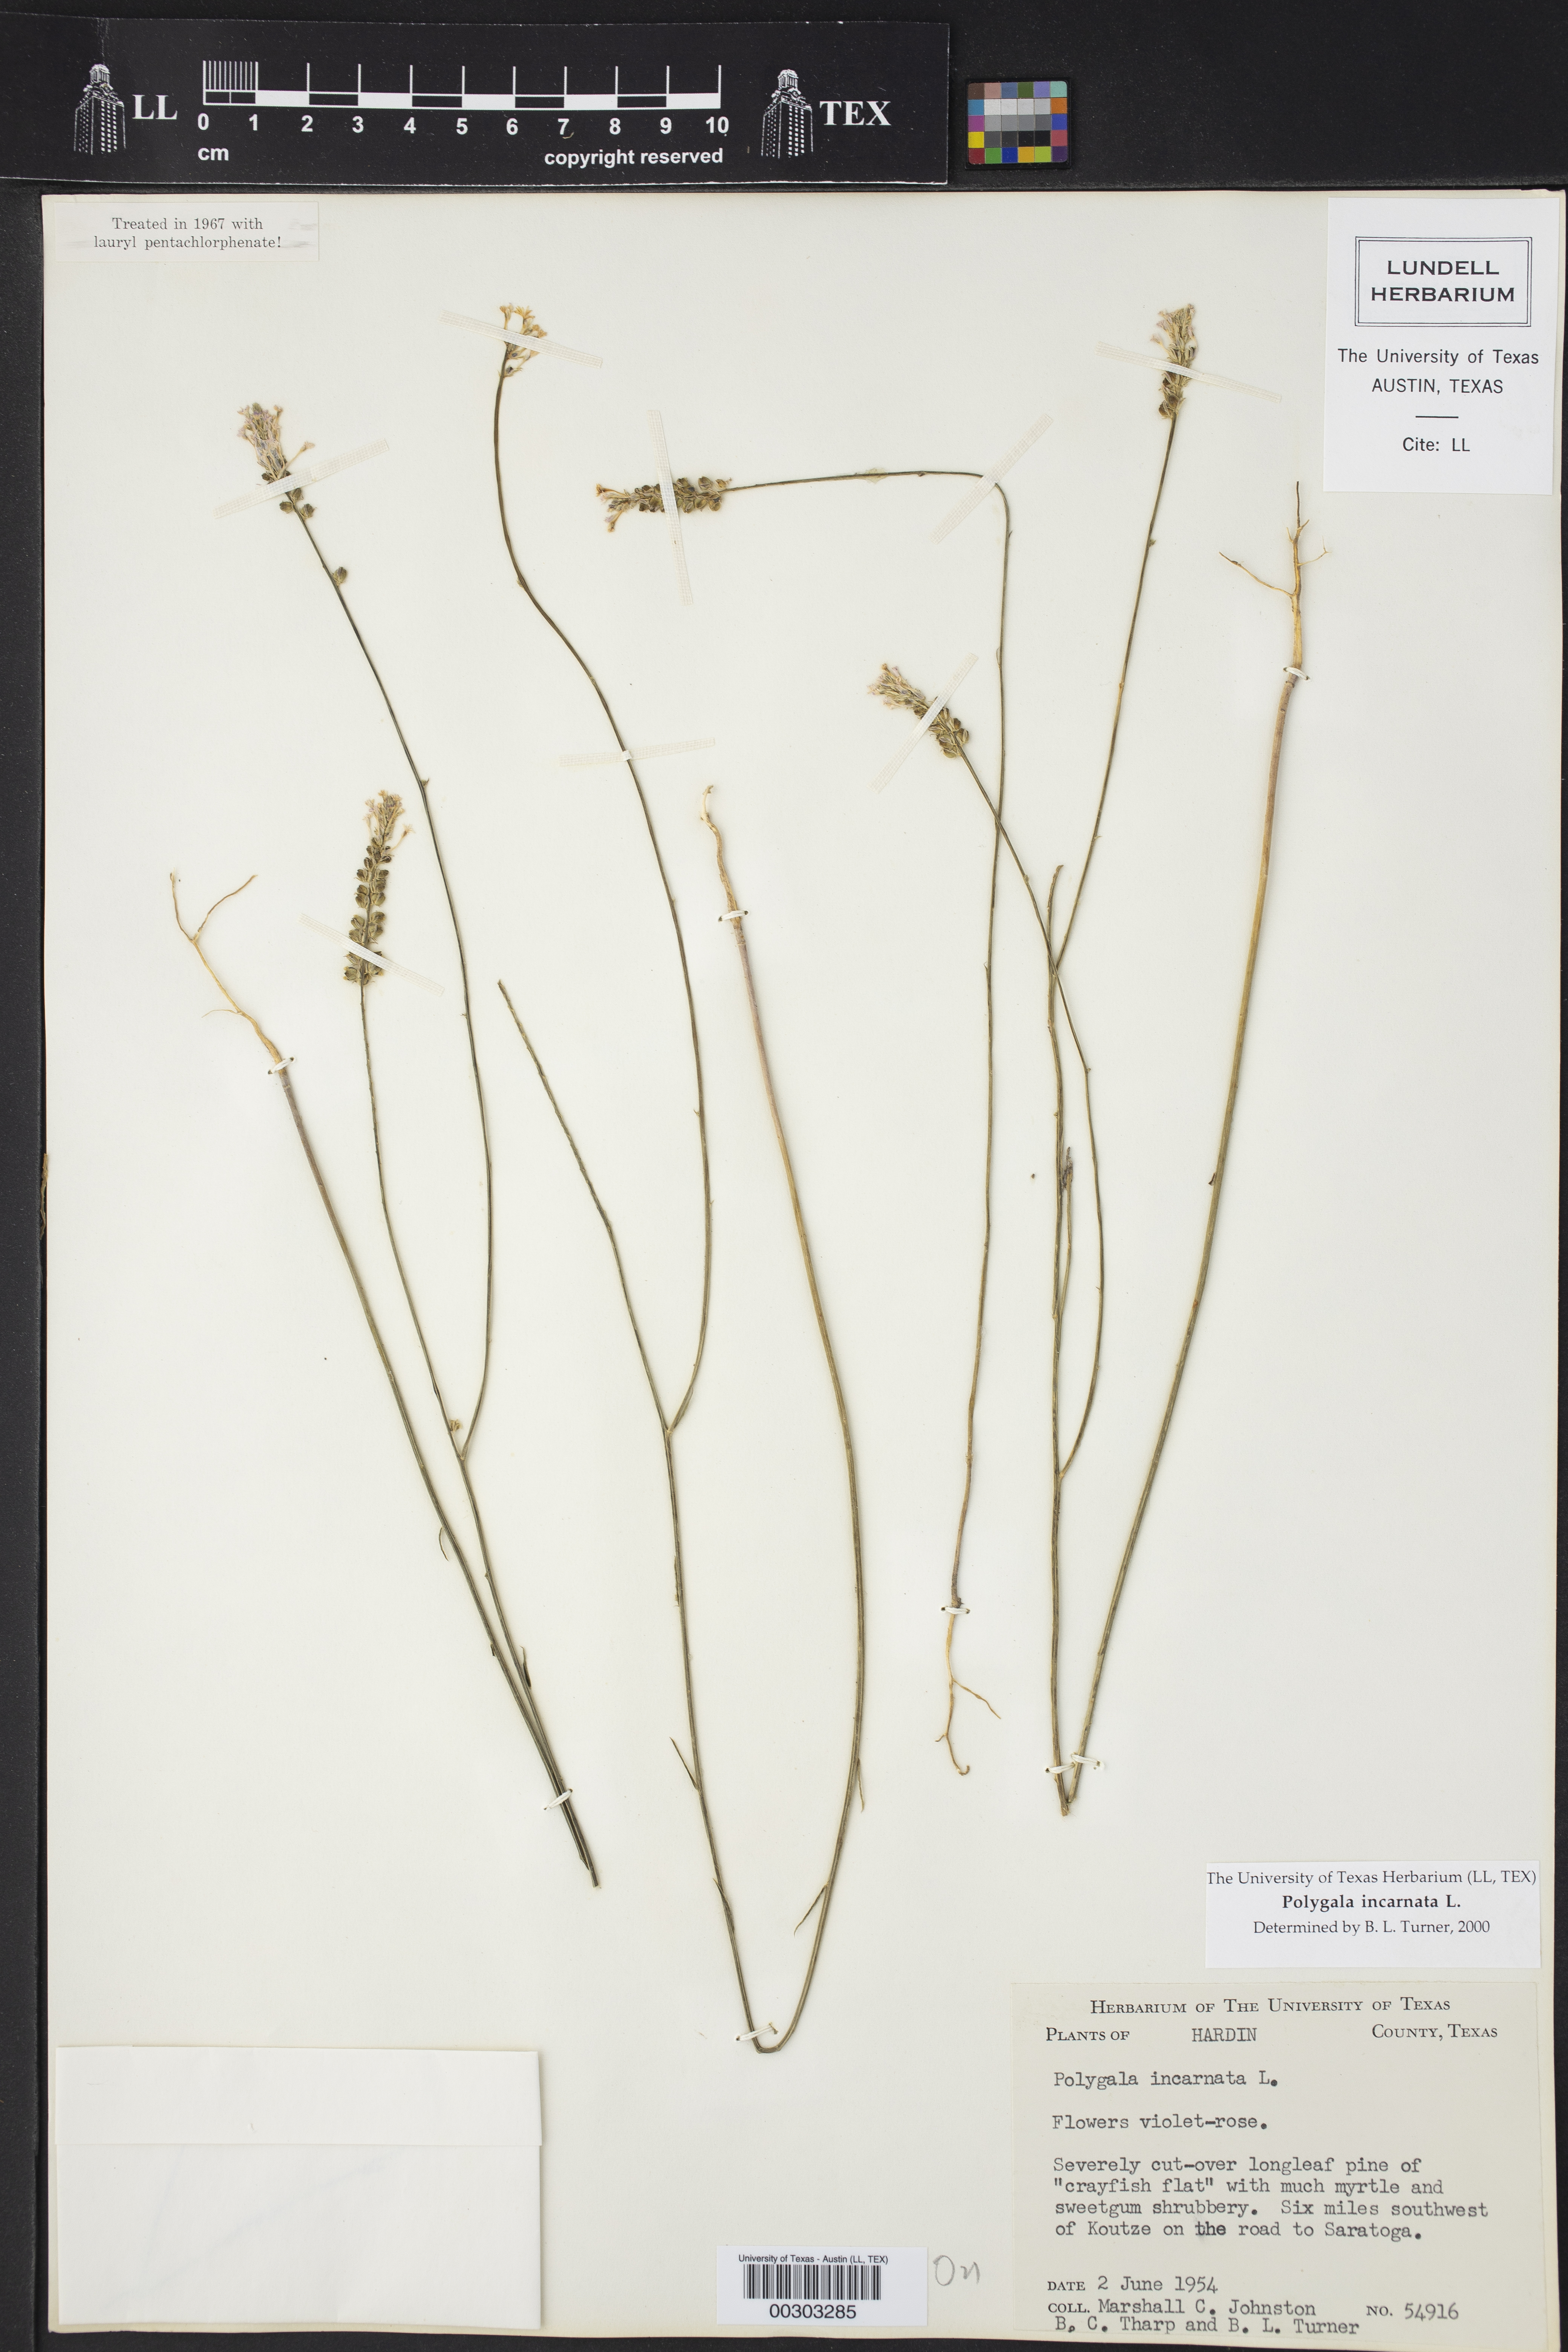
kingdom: Plantae
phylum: Tracheophyta
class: Magnoliopsida
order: Fabales
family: Polygalaceae
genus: Polygala
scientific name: Polygala incarnata
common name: Pink milkwort
